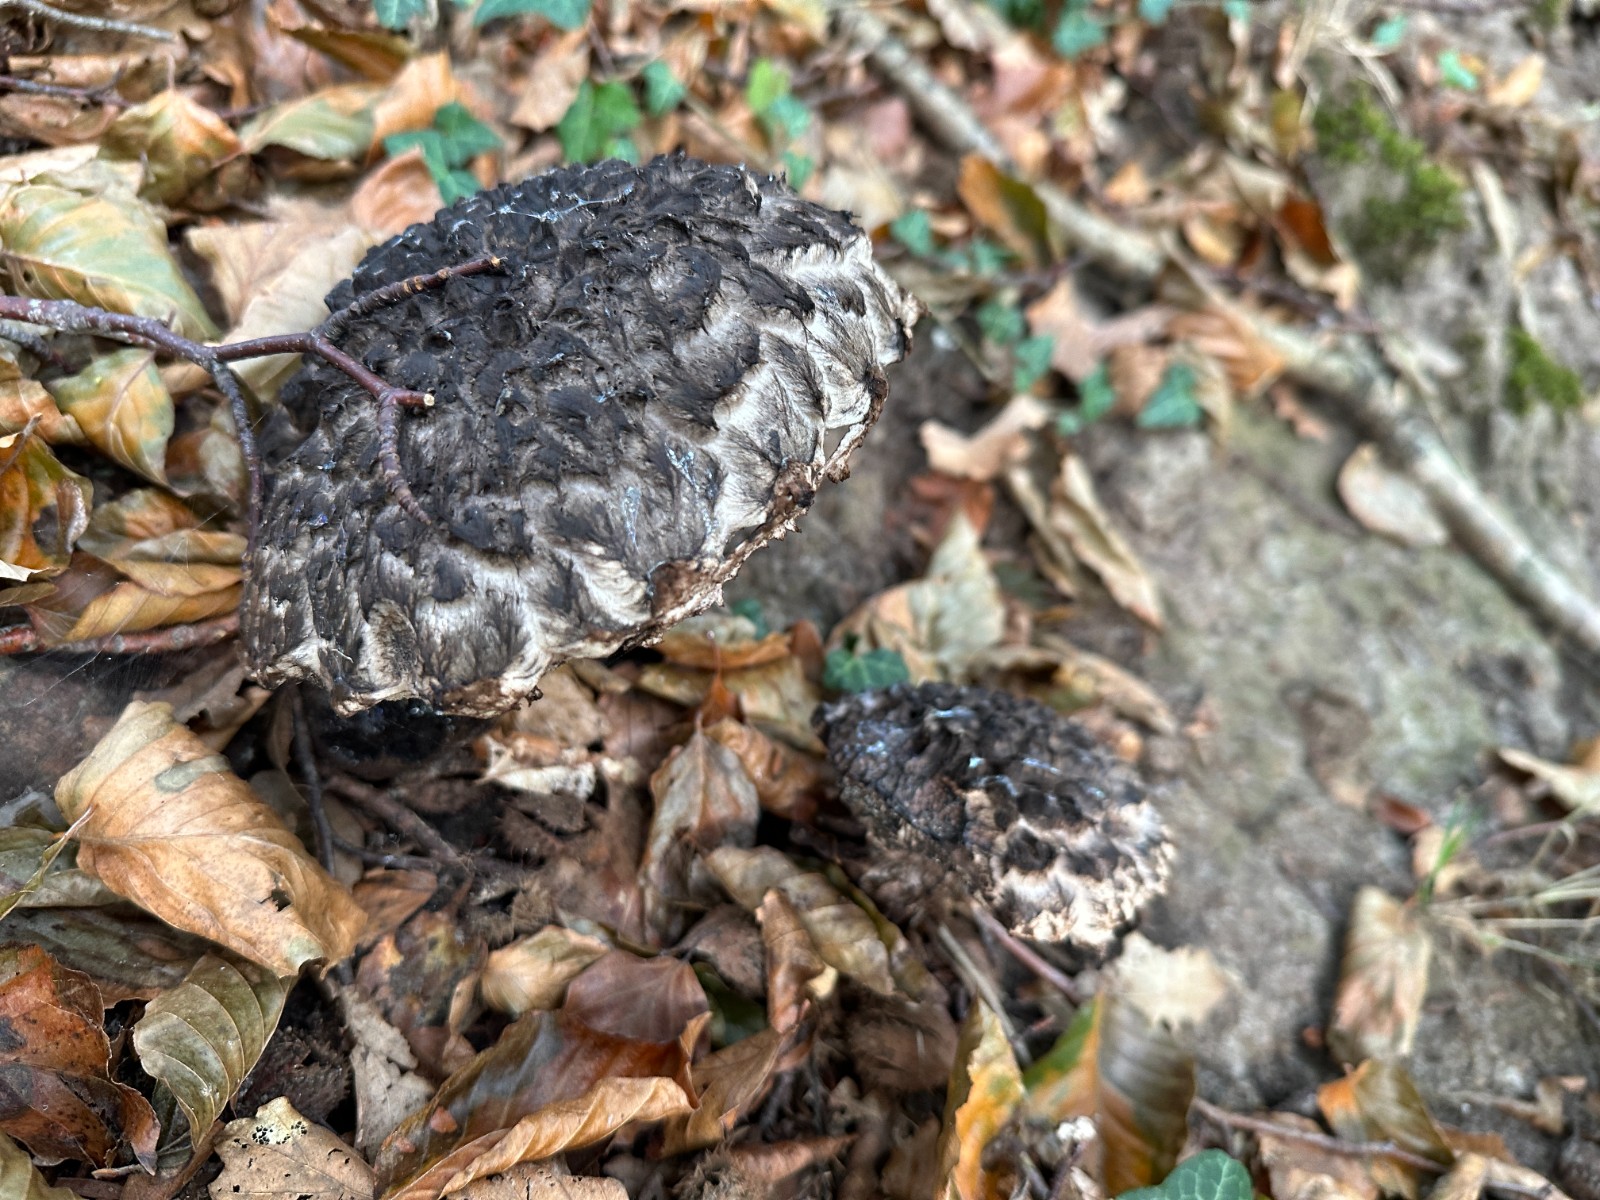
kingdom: Fungi
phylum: Basidiomycota
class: Agaricomycetes
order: Boletales
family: Boletaceae
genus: Strobilomyces
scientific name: Strobilomyces strobilaceus
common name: koglerørhat
